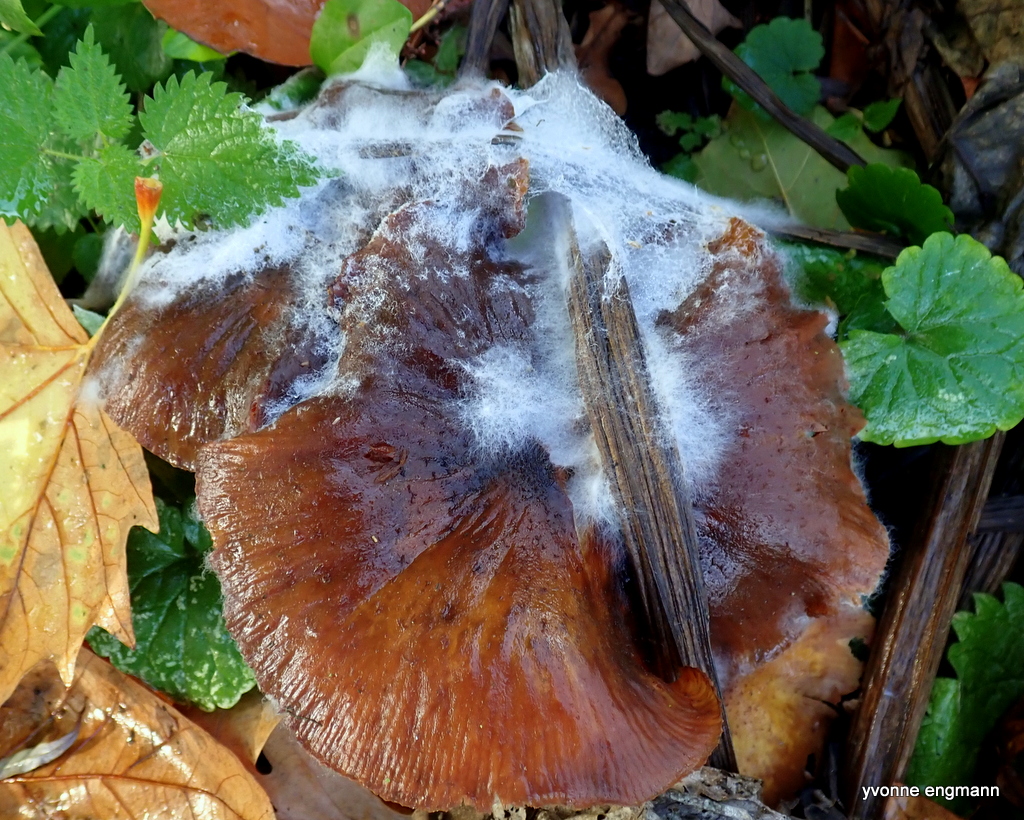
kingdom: Fungi
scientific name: Fungi
